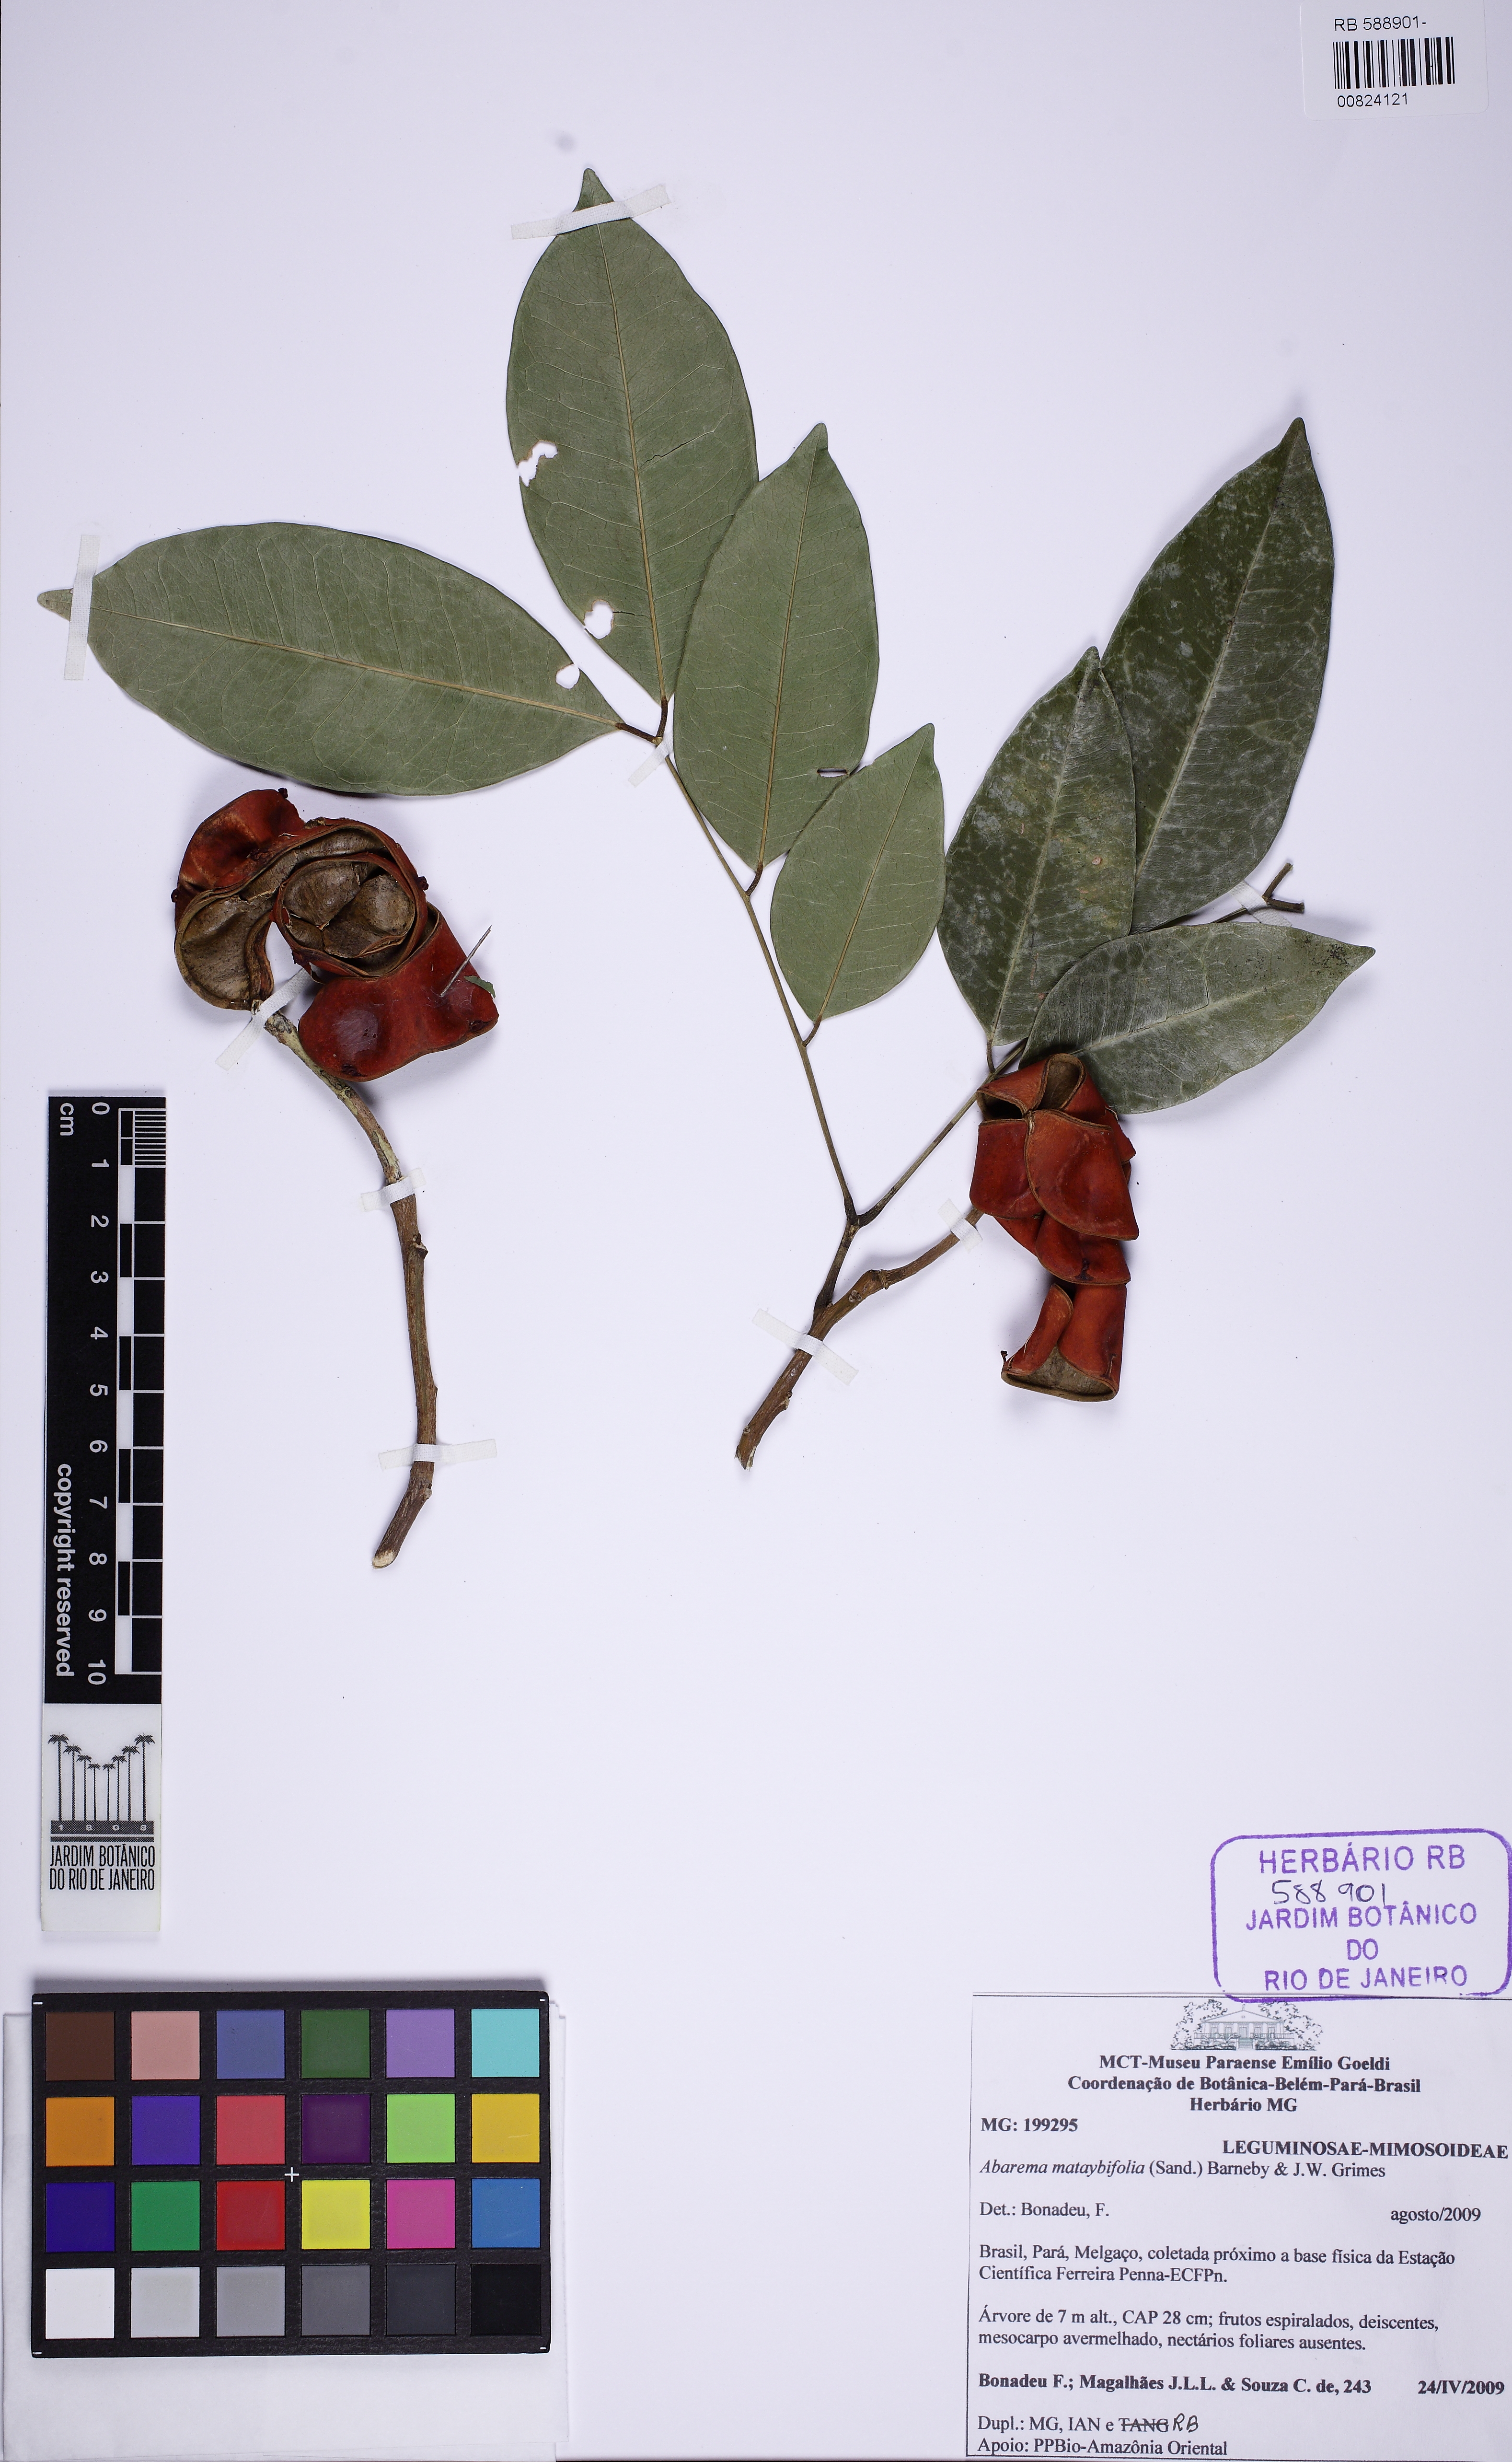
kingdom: Plantae
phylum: Tracheophyta
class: Magnoliopsida
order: Fabales
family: Fabaceae
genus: Jupunba
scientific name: Jupunba mataybifolia
